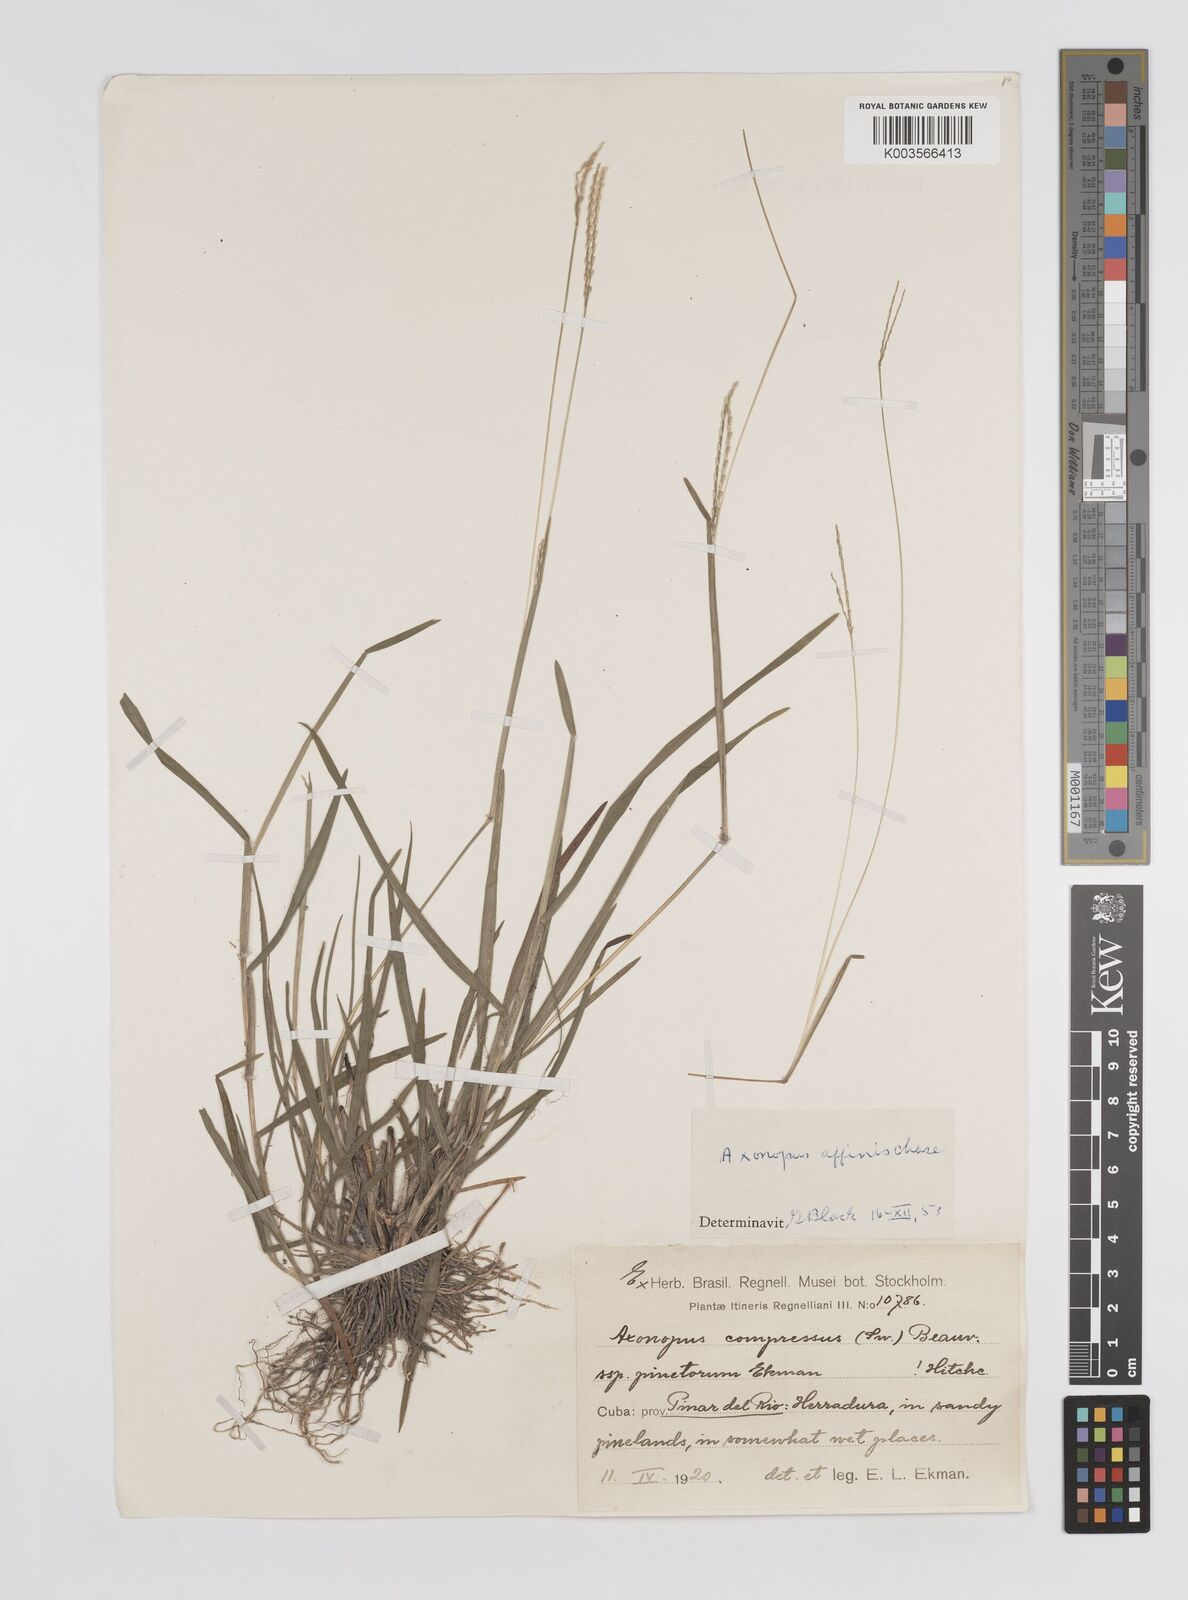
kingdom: Plantae
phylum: Tracheophyta
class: Liliopsida
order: Poales
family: Poaceae
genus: Axonopus
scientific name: Axonopus fissifolius
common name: Common carpetgrass
